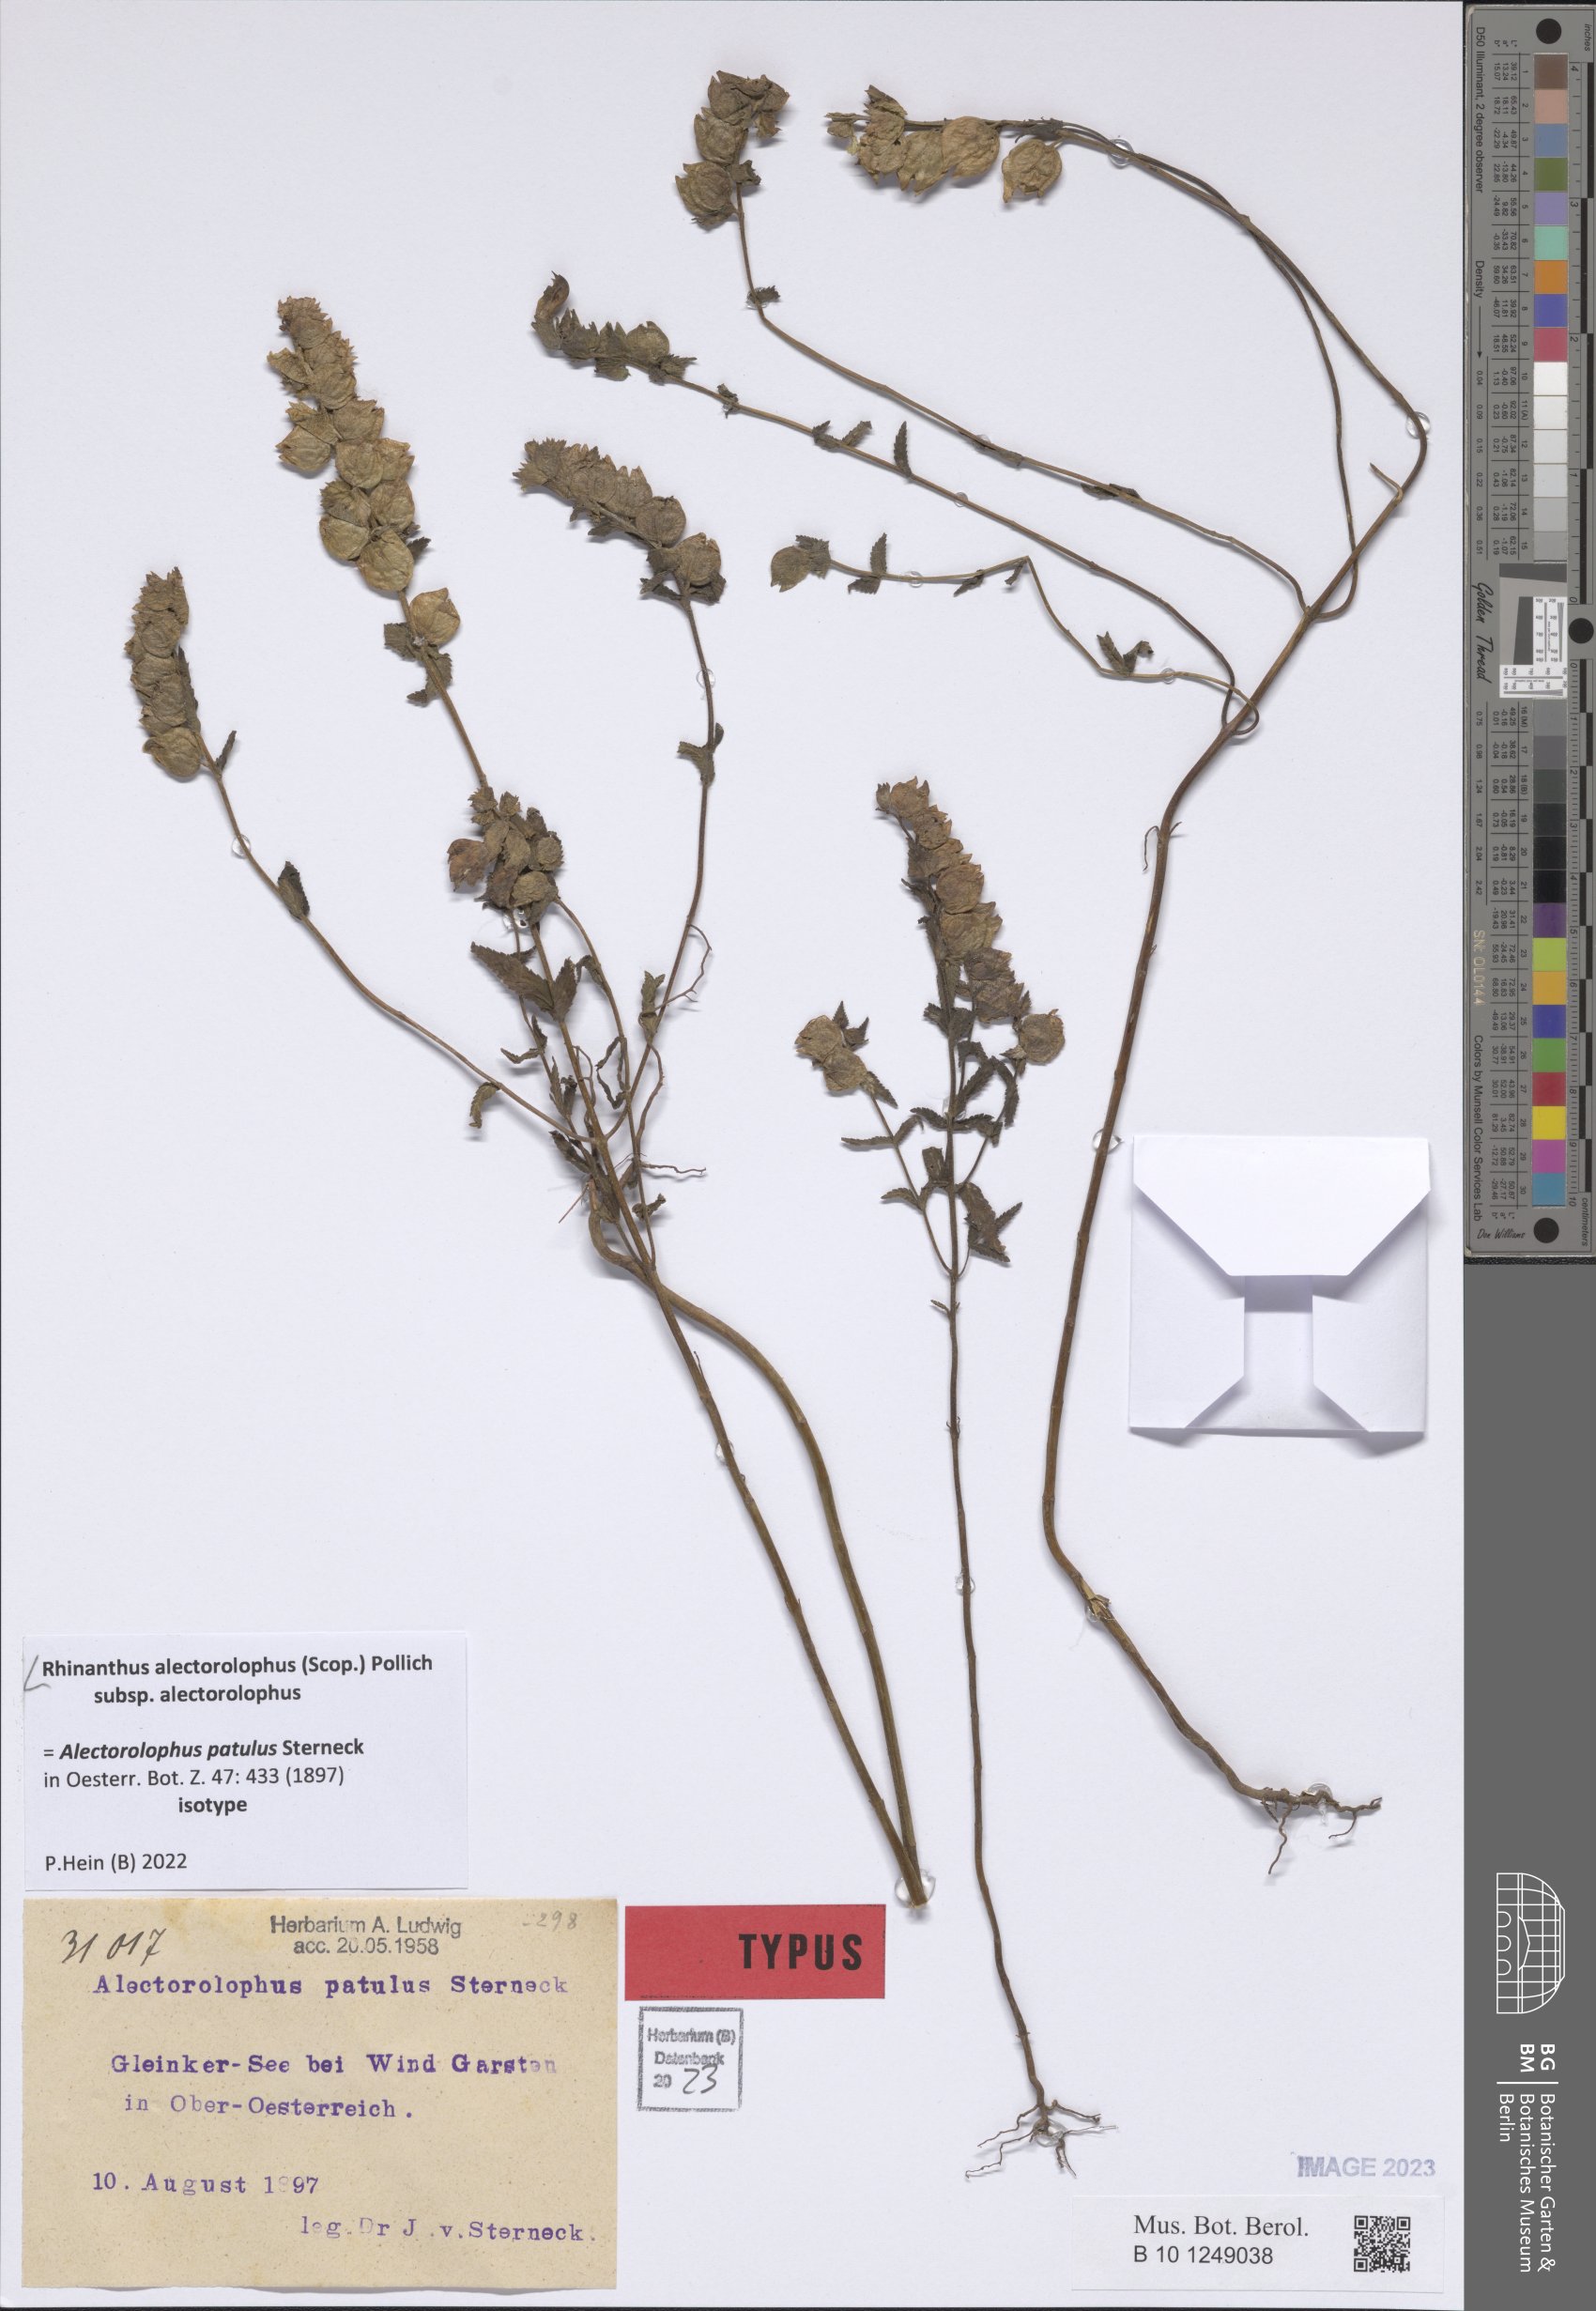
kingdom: Plantae
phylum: Tracheophyta
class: Magnoliopsida
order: Lamiales
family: Orobanchaceae
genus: Rhinanthus
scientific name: Rhinanthus alectorolophus
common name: Greater yellow-rattle
